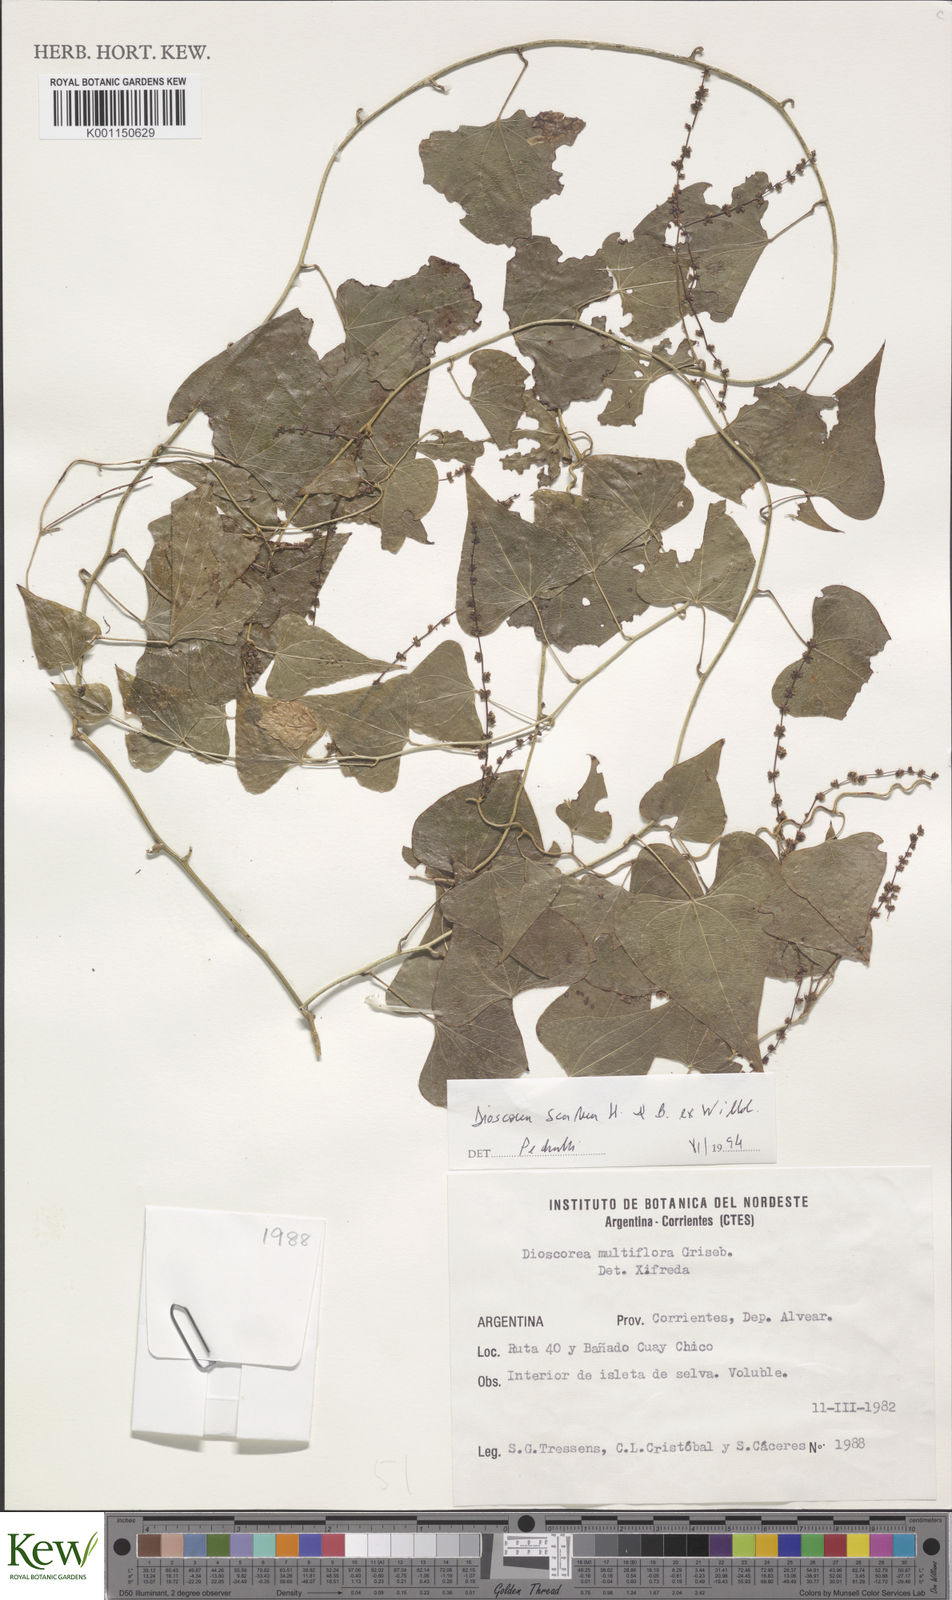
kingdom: Plantae
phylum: Tracheophyta
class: Liliopsida
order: Dioscoreales
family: Dioscoreaceae
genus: Dioscorea
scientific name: Dioscorea scabra
